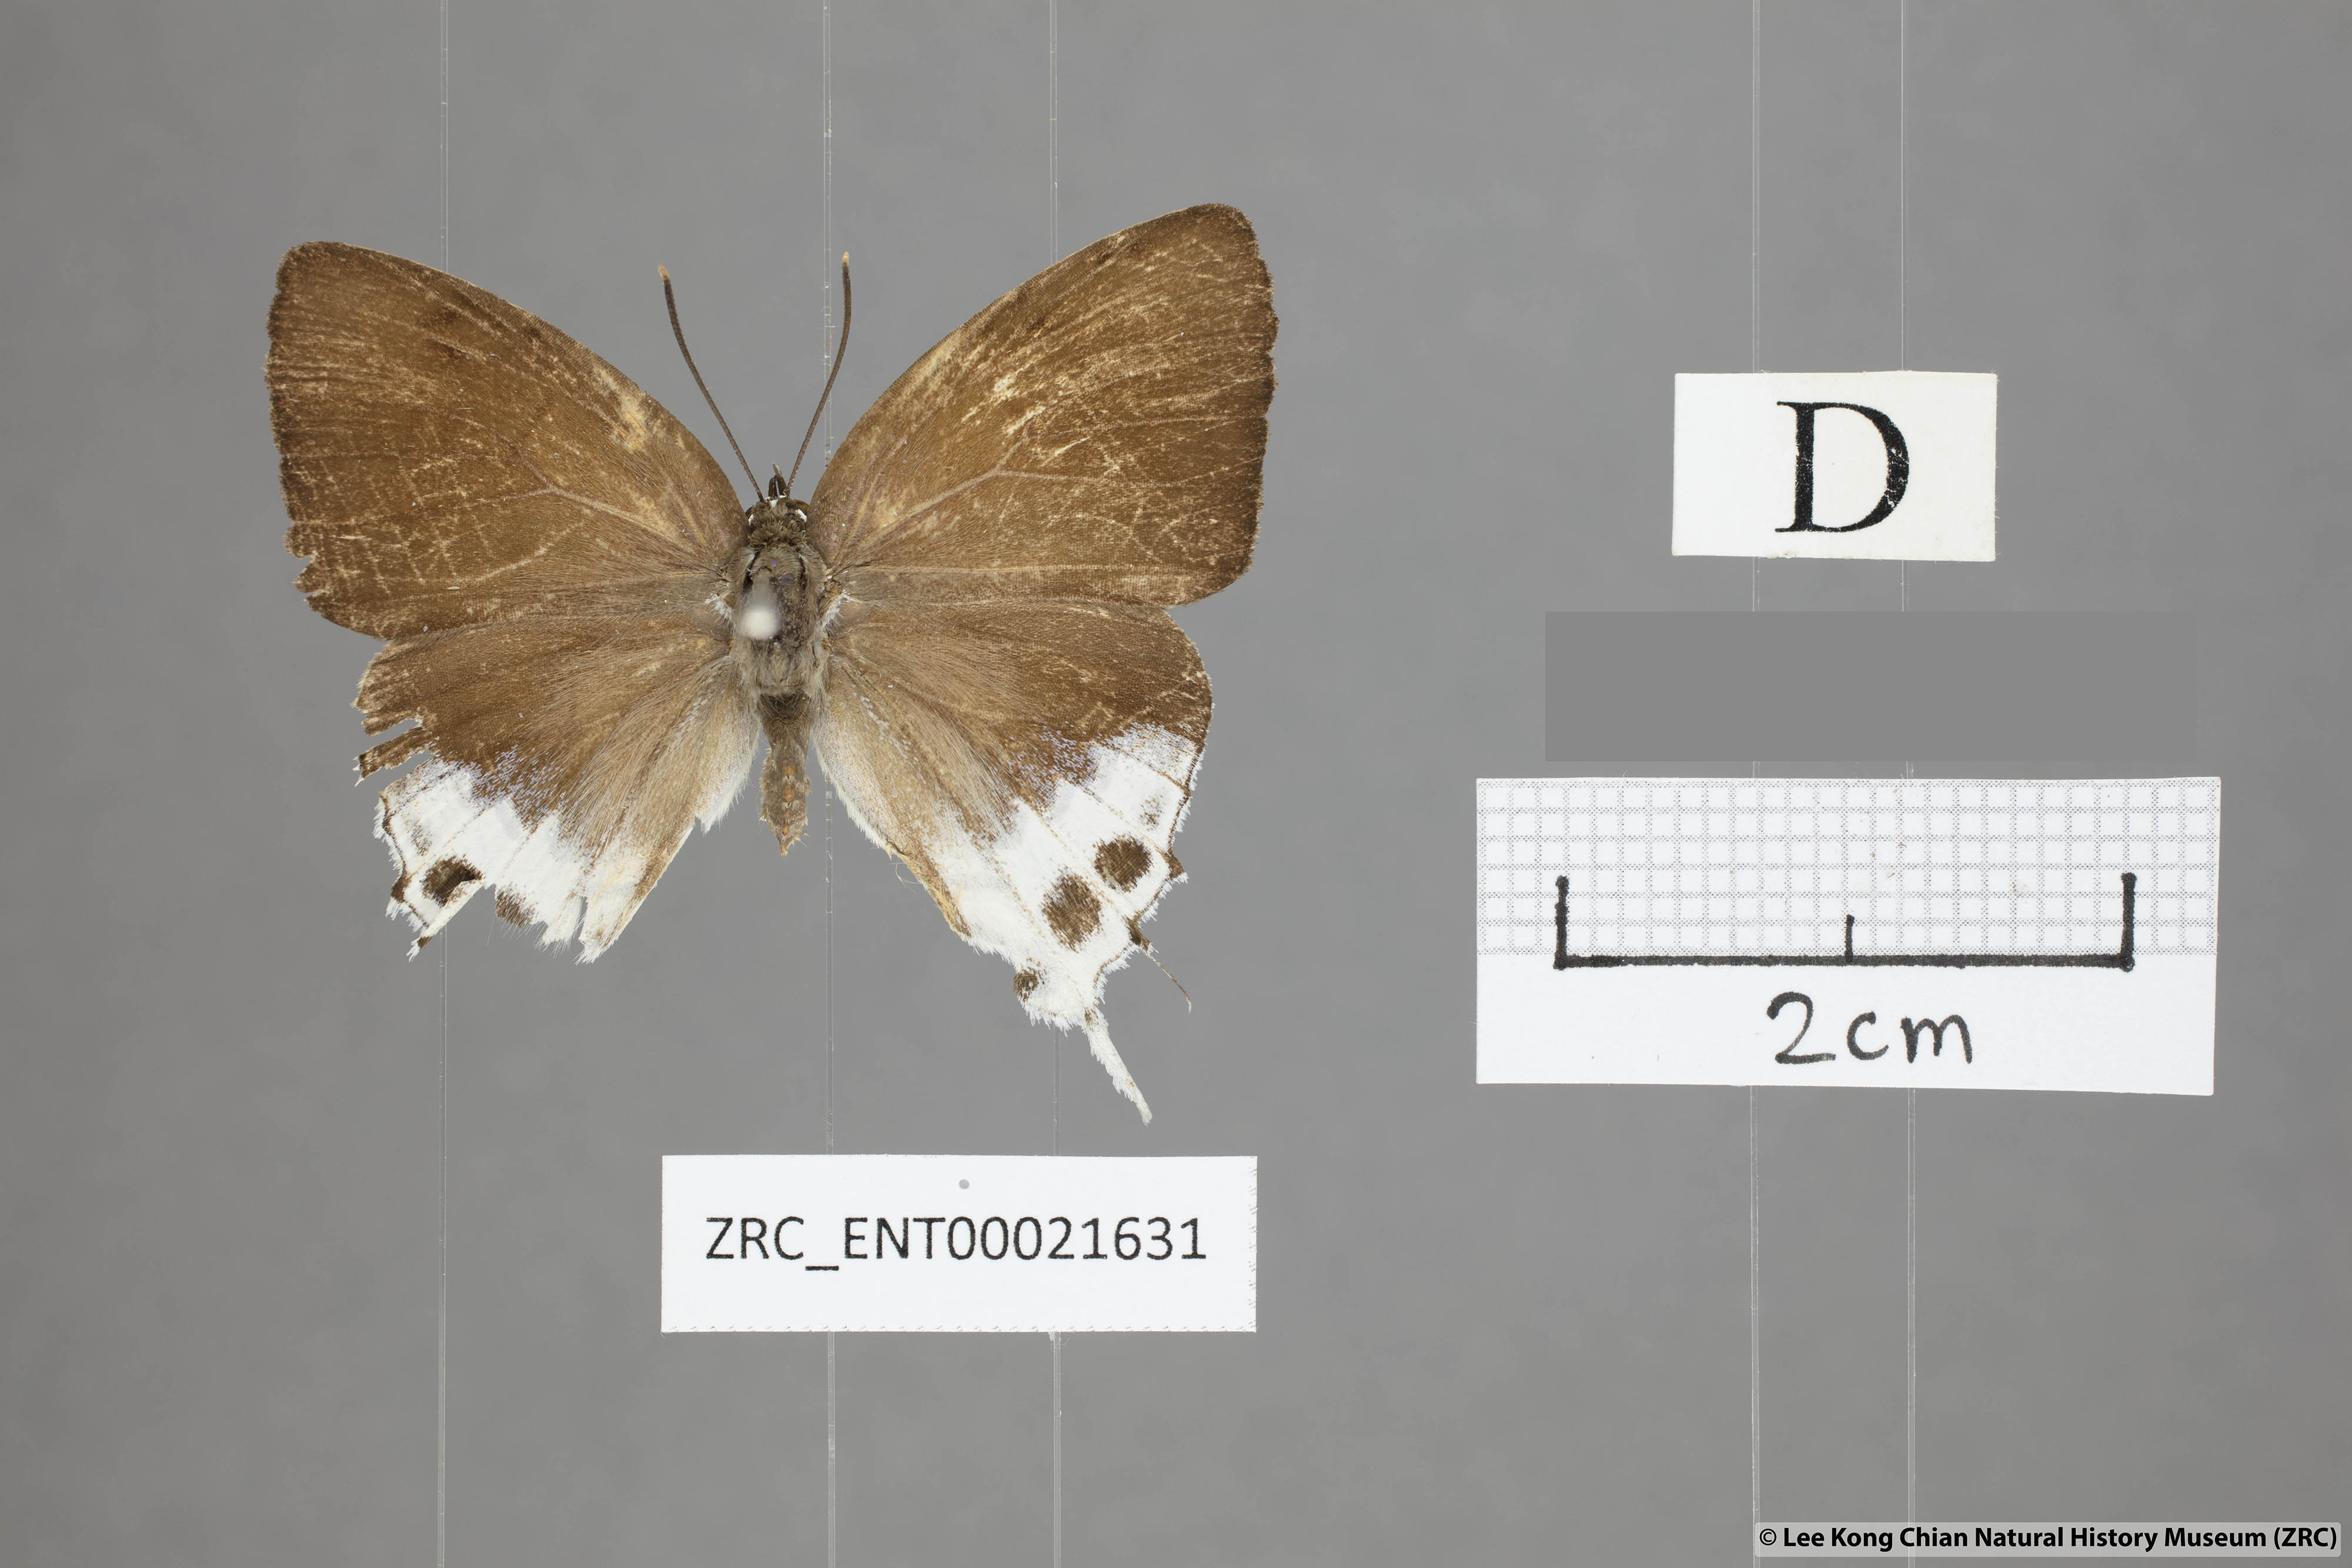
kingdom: Animalia
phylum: Arthropoda
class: Insecta
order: Lepidoptera
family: Lycaenidae
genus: Mantoides
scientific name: Mantoides gama
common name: Distant's imperial
